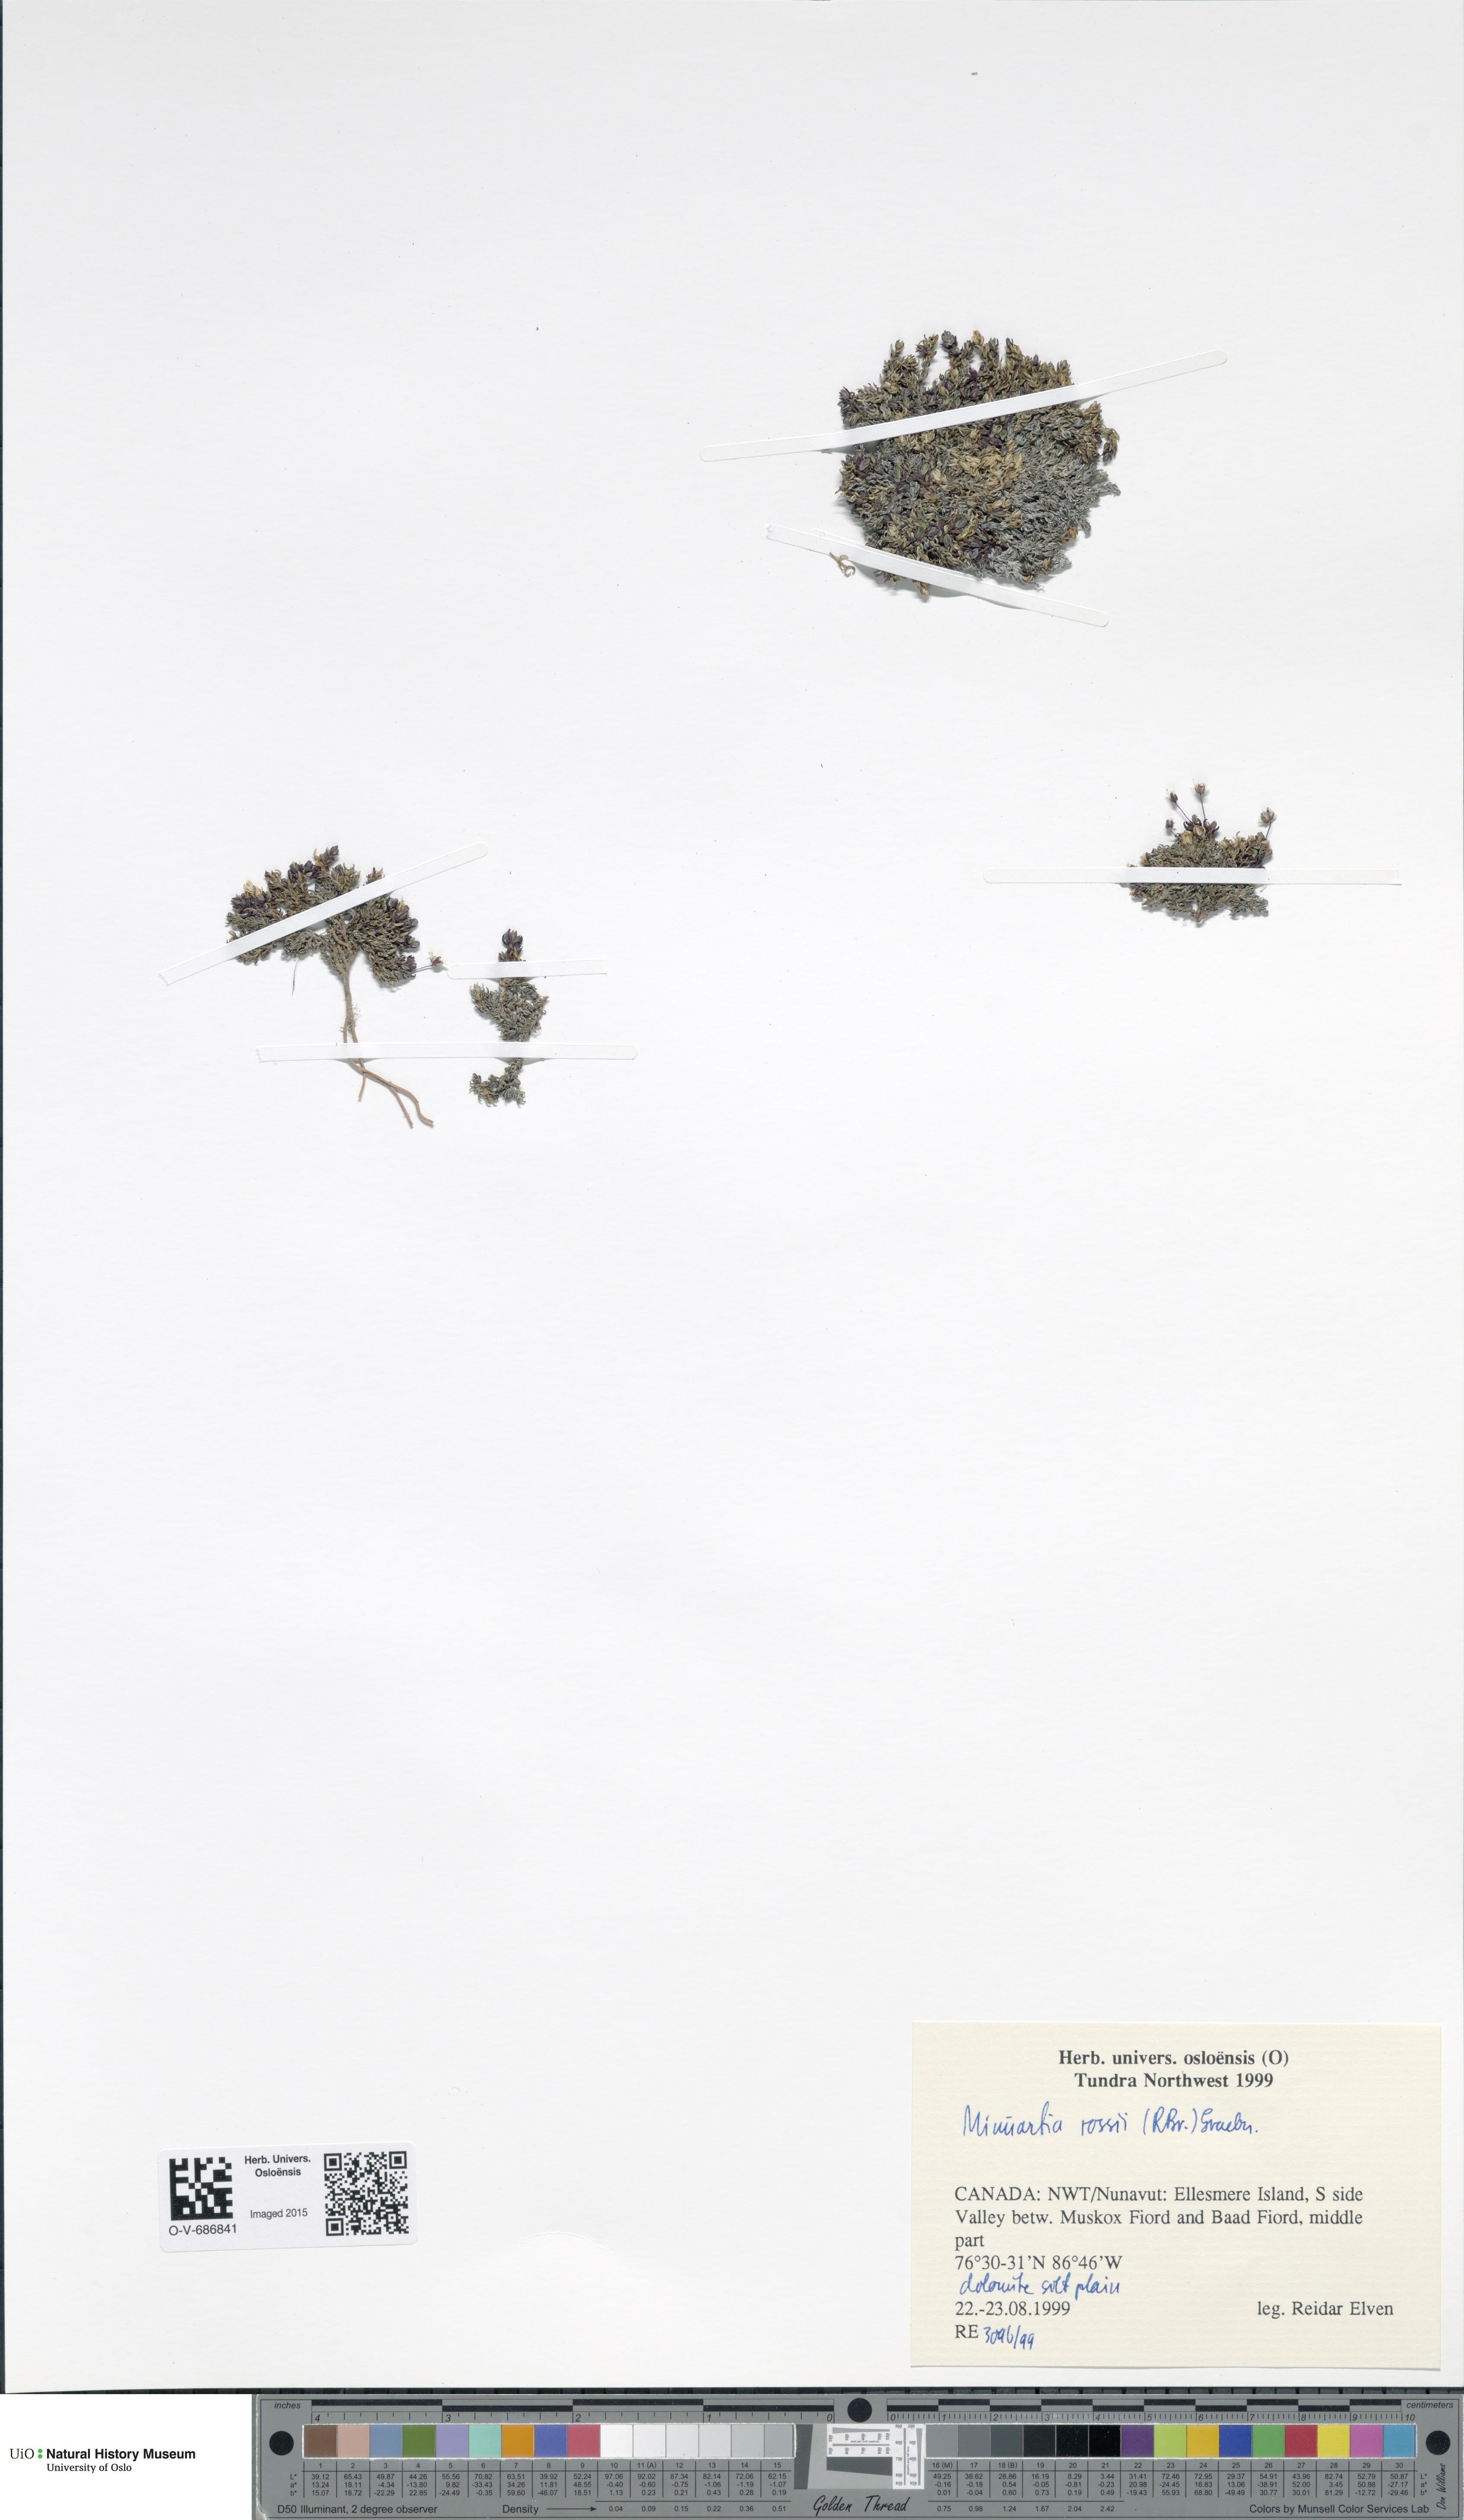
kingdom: Plantae
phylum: Tracheophyta
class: Magnoliopsida
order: Caryophyllales
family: Caryophyllaceae
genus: Sabulina
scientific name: Sabulina rosei
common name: Ross' sandwort
